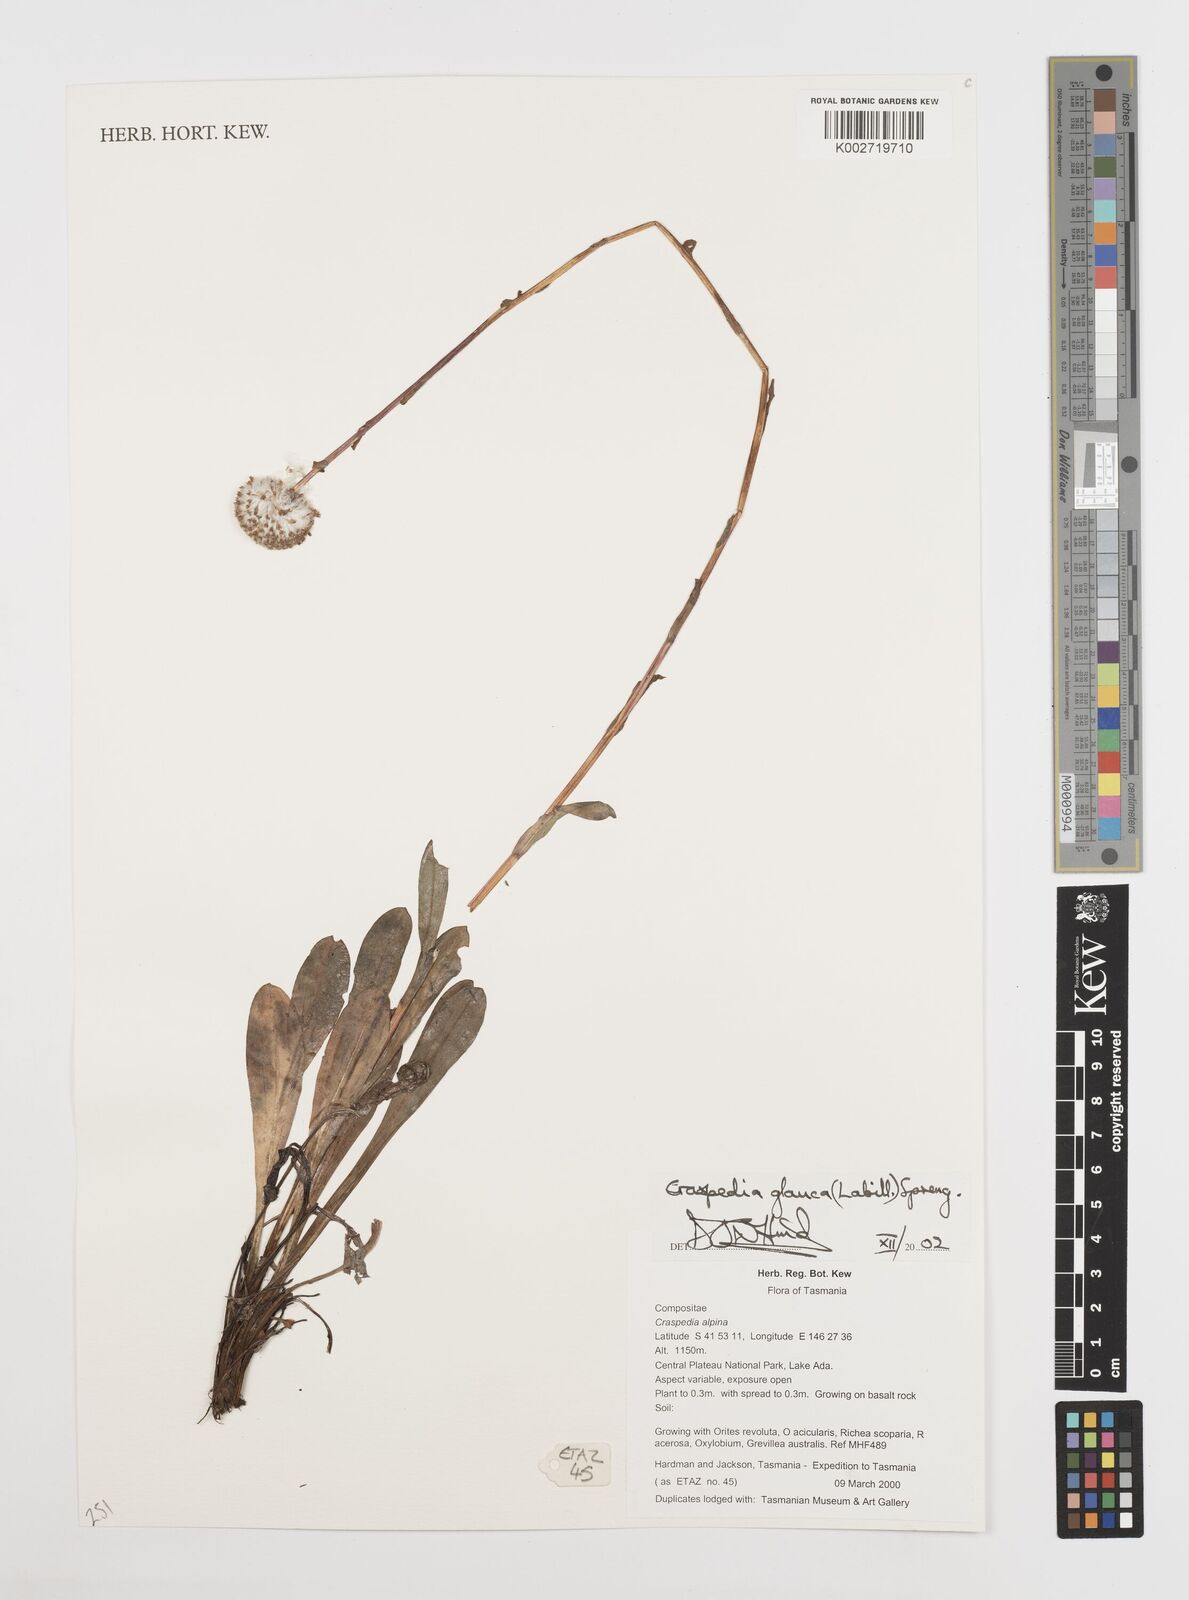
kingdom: Plantae
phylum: Tracheophyta
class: Magnoliopsida
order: Asterales
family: Asteraceae
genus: Craspedia
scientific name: Craspedia glauca
